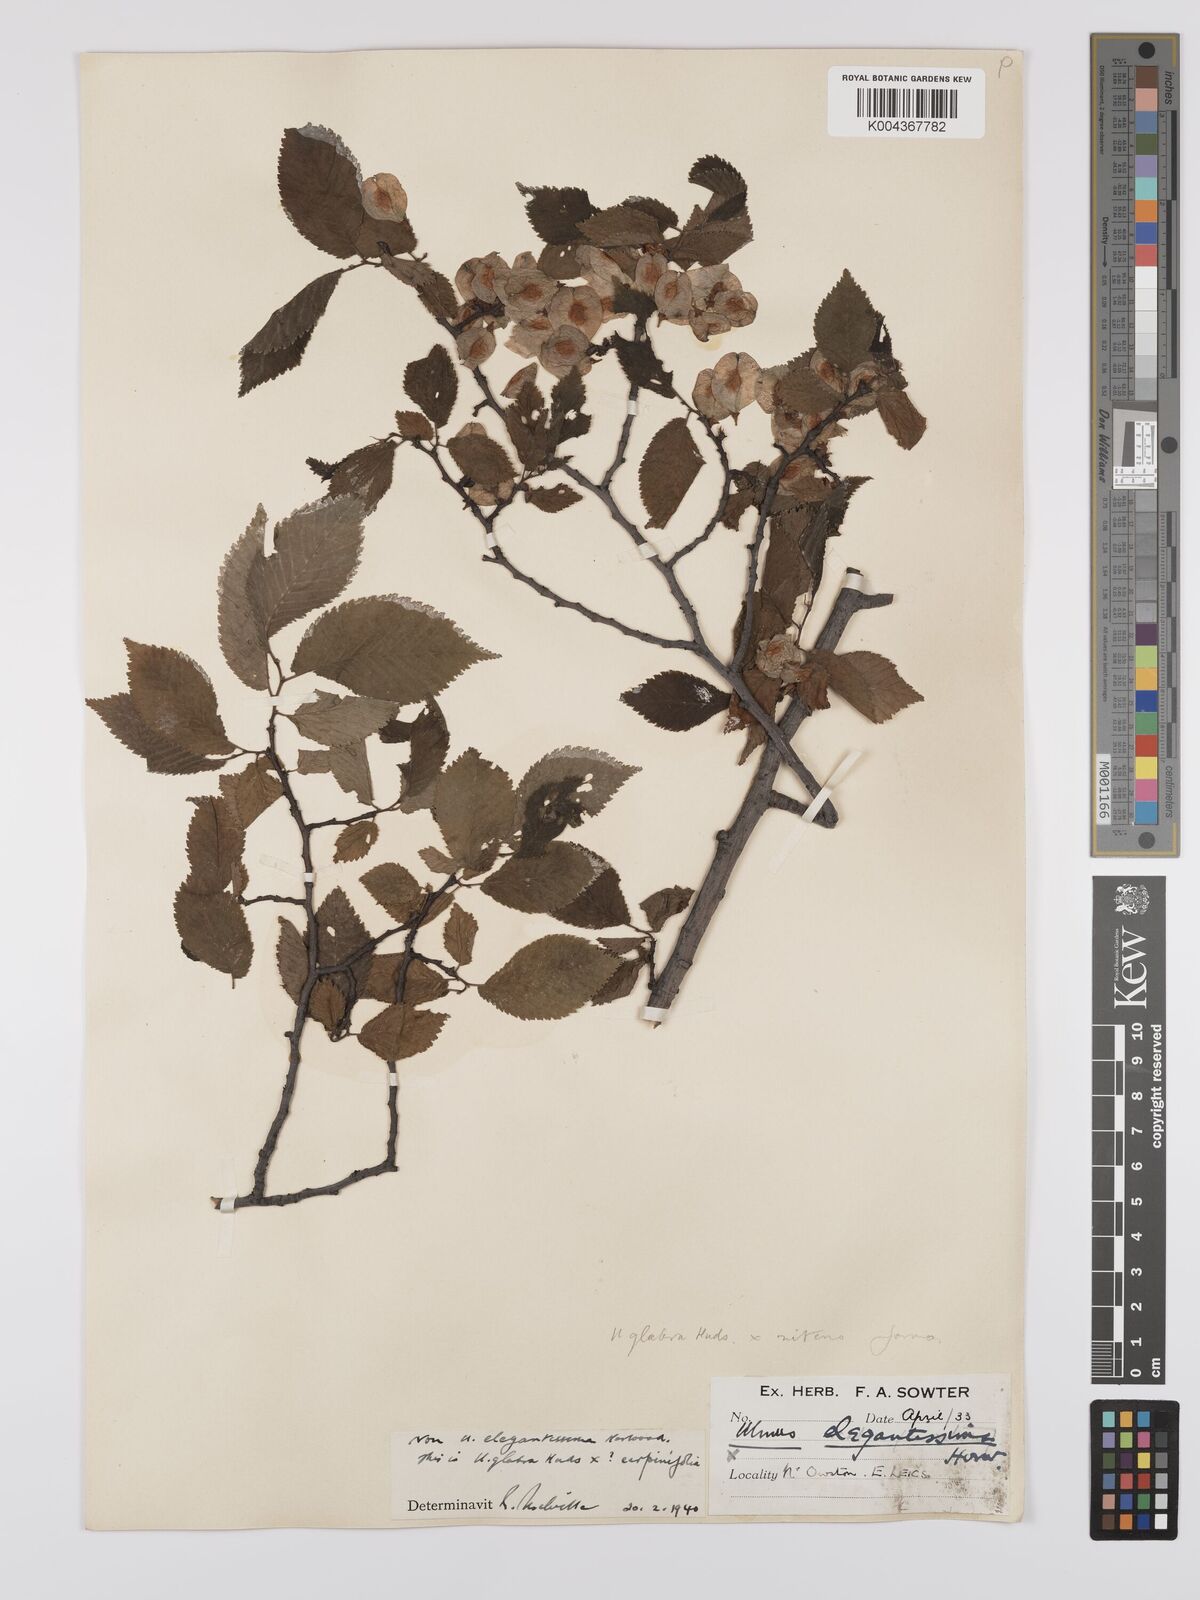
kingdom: Plantae
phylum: Tracheophyta
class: Magnoliopsida
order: Rosales
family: Ulmaceae
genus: Ulmus
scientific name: Ulmus
